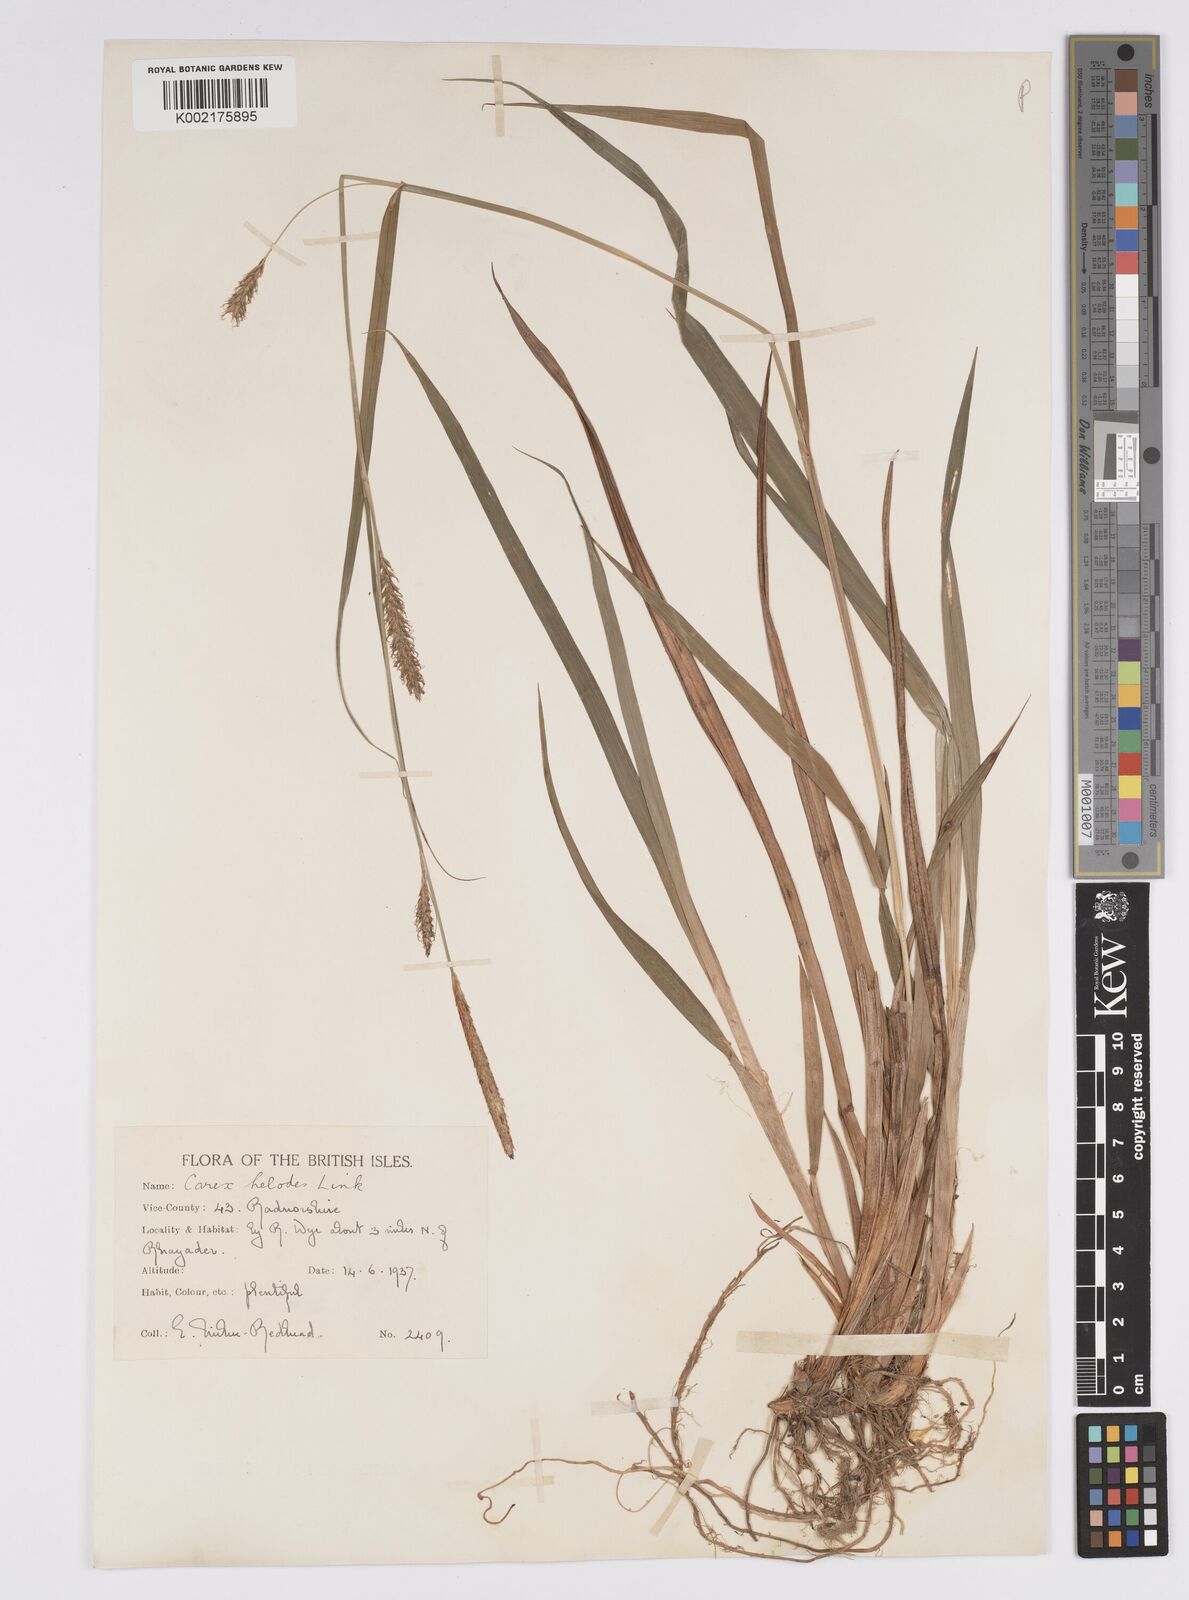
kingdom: Plantae
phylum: Tracheophyta
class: Liliopsida
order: Poales
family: Cyperaceae
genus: Carex
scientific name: Carex laevigata
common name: Smooth-stalked sedge
